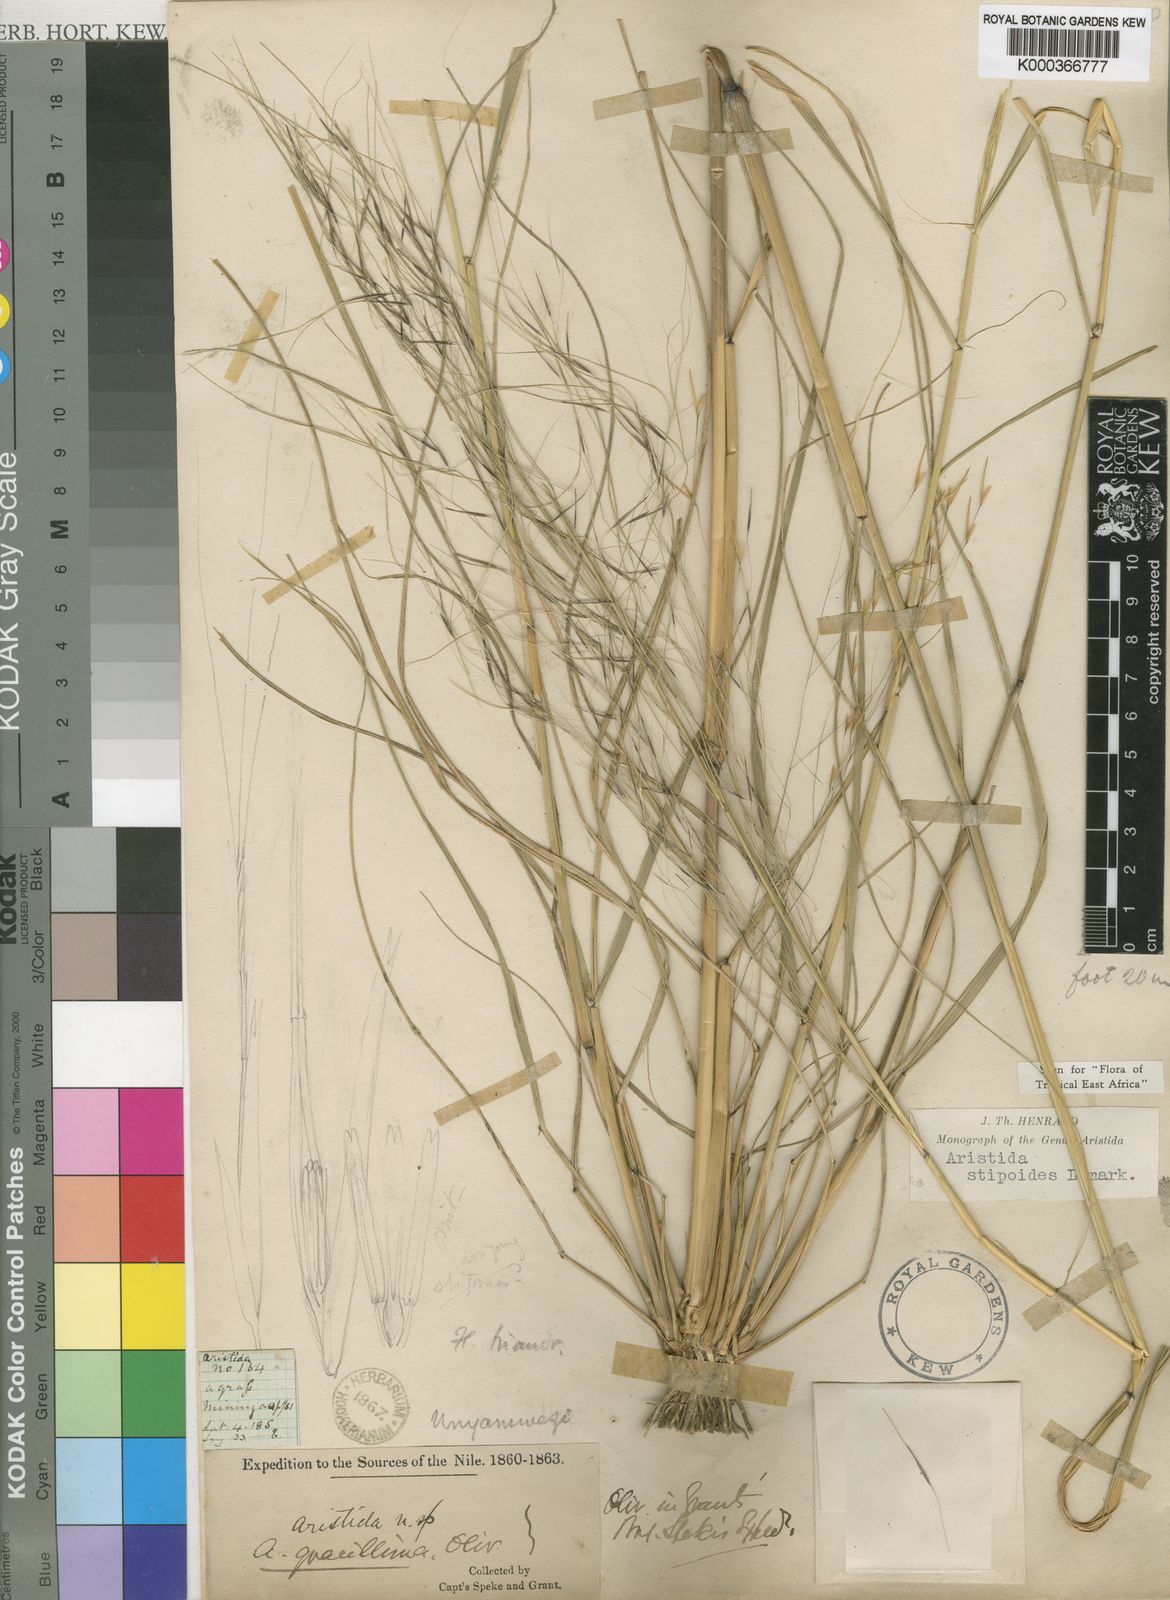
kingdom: Plantae
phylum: Tracheophyta
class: Liliopsida
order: Poales
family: Poaceae
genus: Aristida
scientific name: Aristida stipoides
